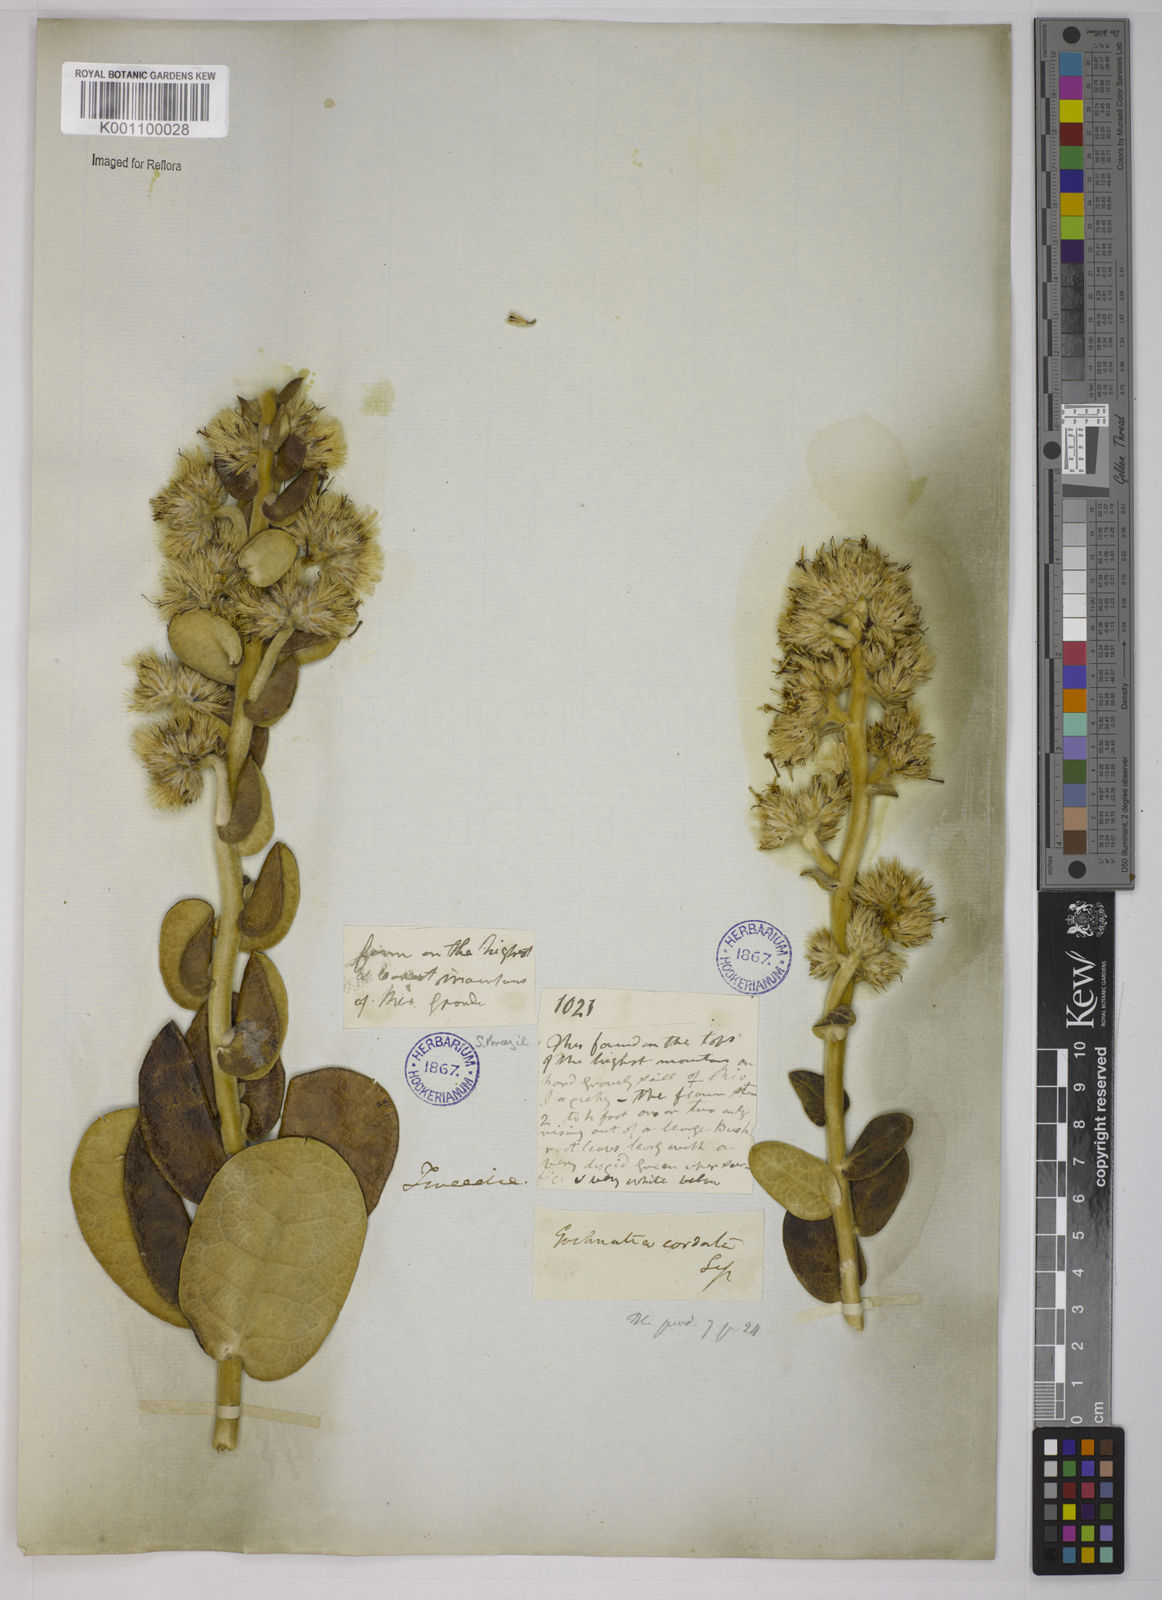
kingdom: Plantae
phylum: Tracheophyta
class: Magnoliopsida
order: Asterales
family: Asteraceae
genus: Gochnatia
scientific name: Gochnatia
